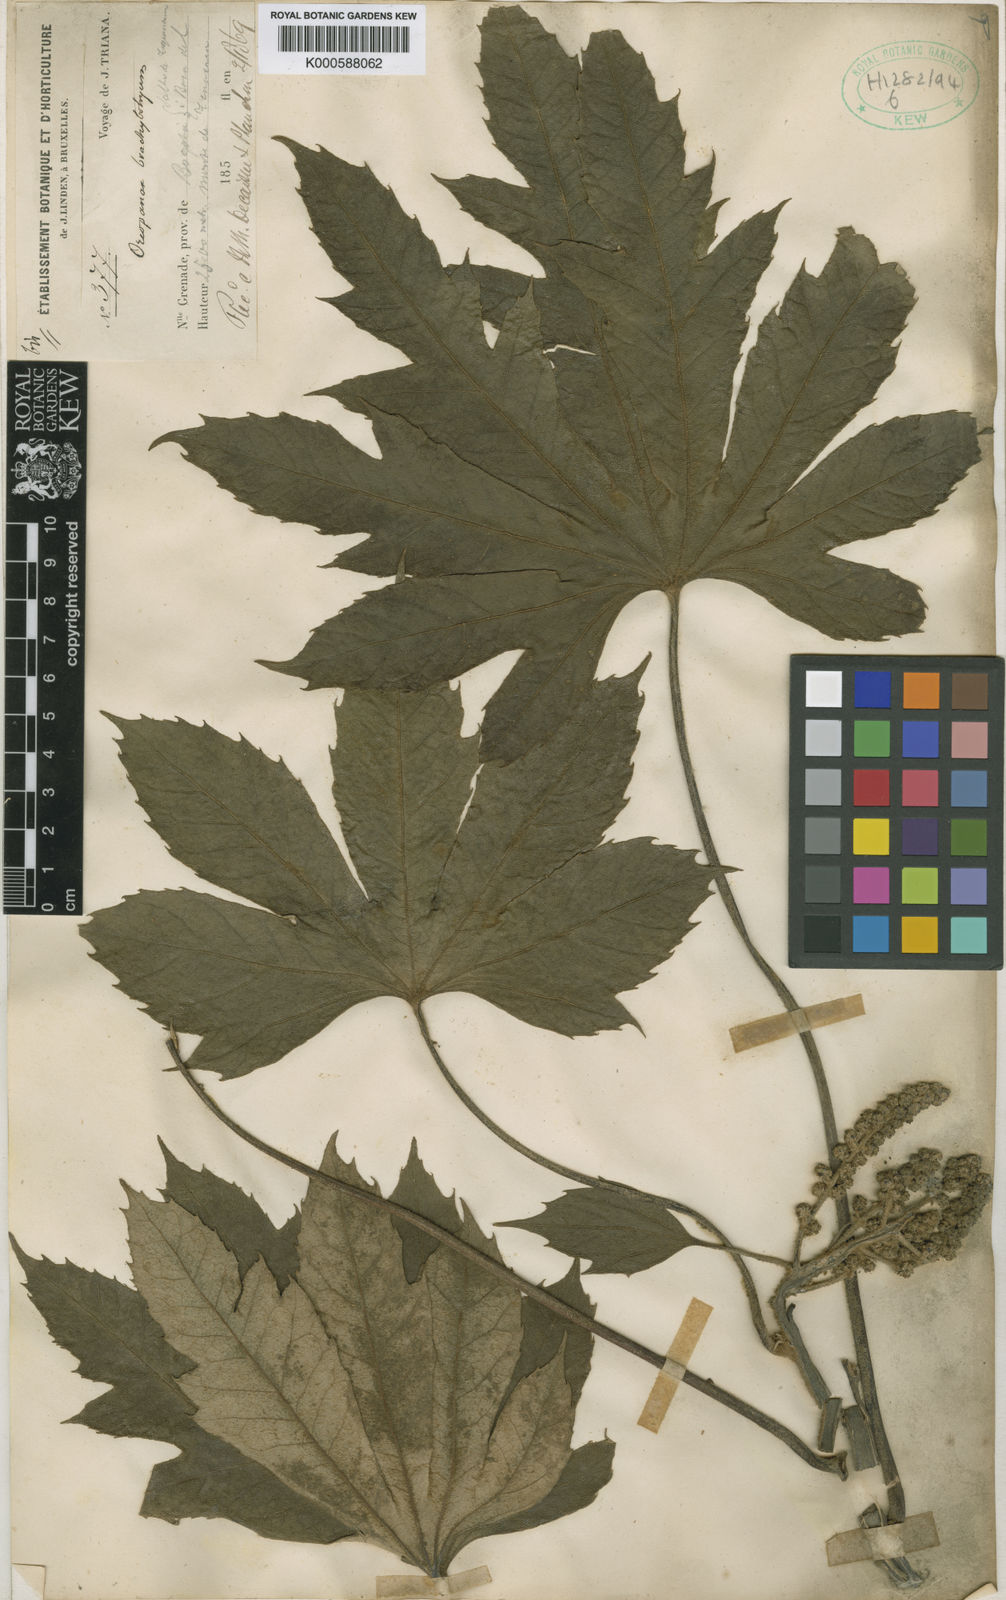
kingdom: Plantae
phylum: Tracheophyta
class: Magnoliopsida
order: Apiales
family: Araliaceae
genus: Oreopanax
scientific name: Oreopanax
